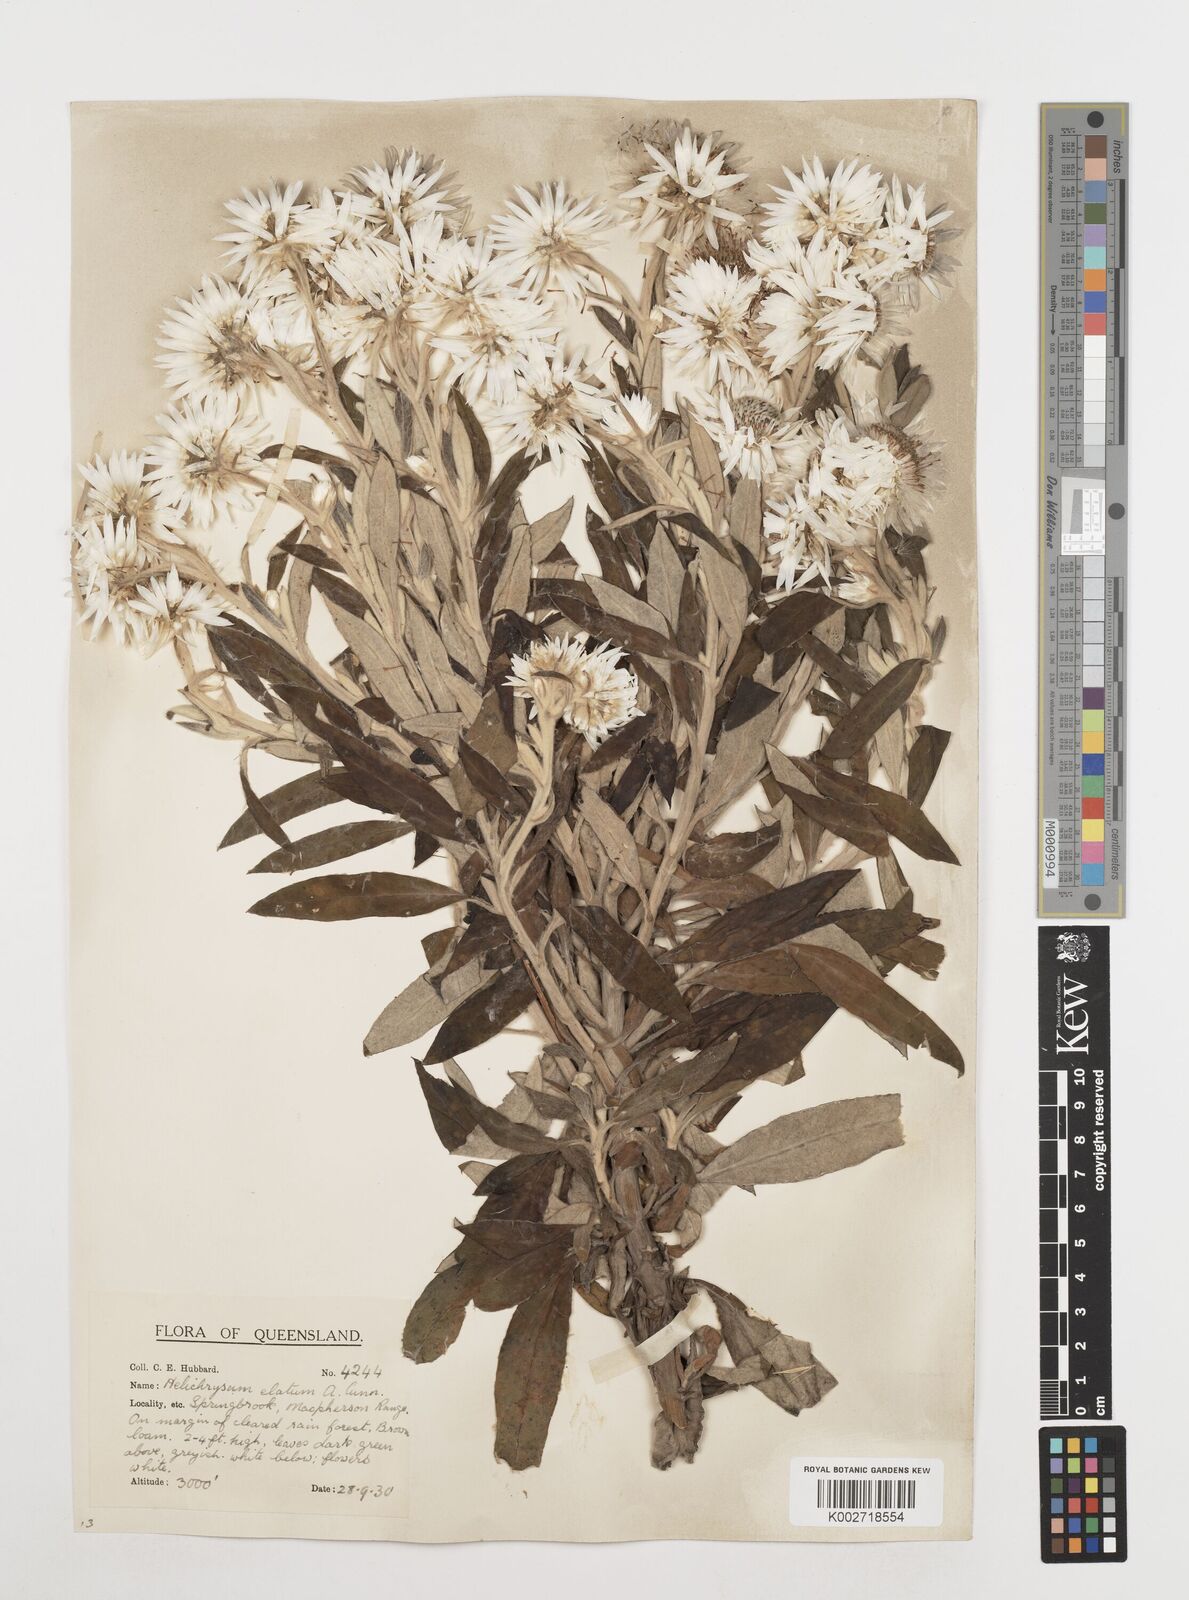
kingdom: Plantae
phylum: Tracheophyta
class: Magnoliopsida
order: Asterales
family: Asteraceae
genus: Leucozoma
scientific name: Leucozoma elatum
